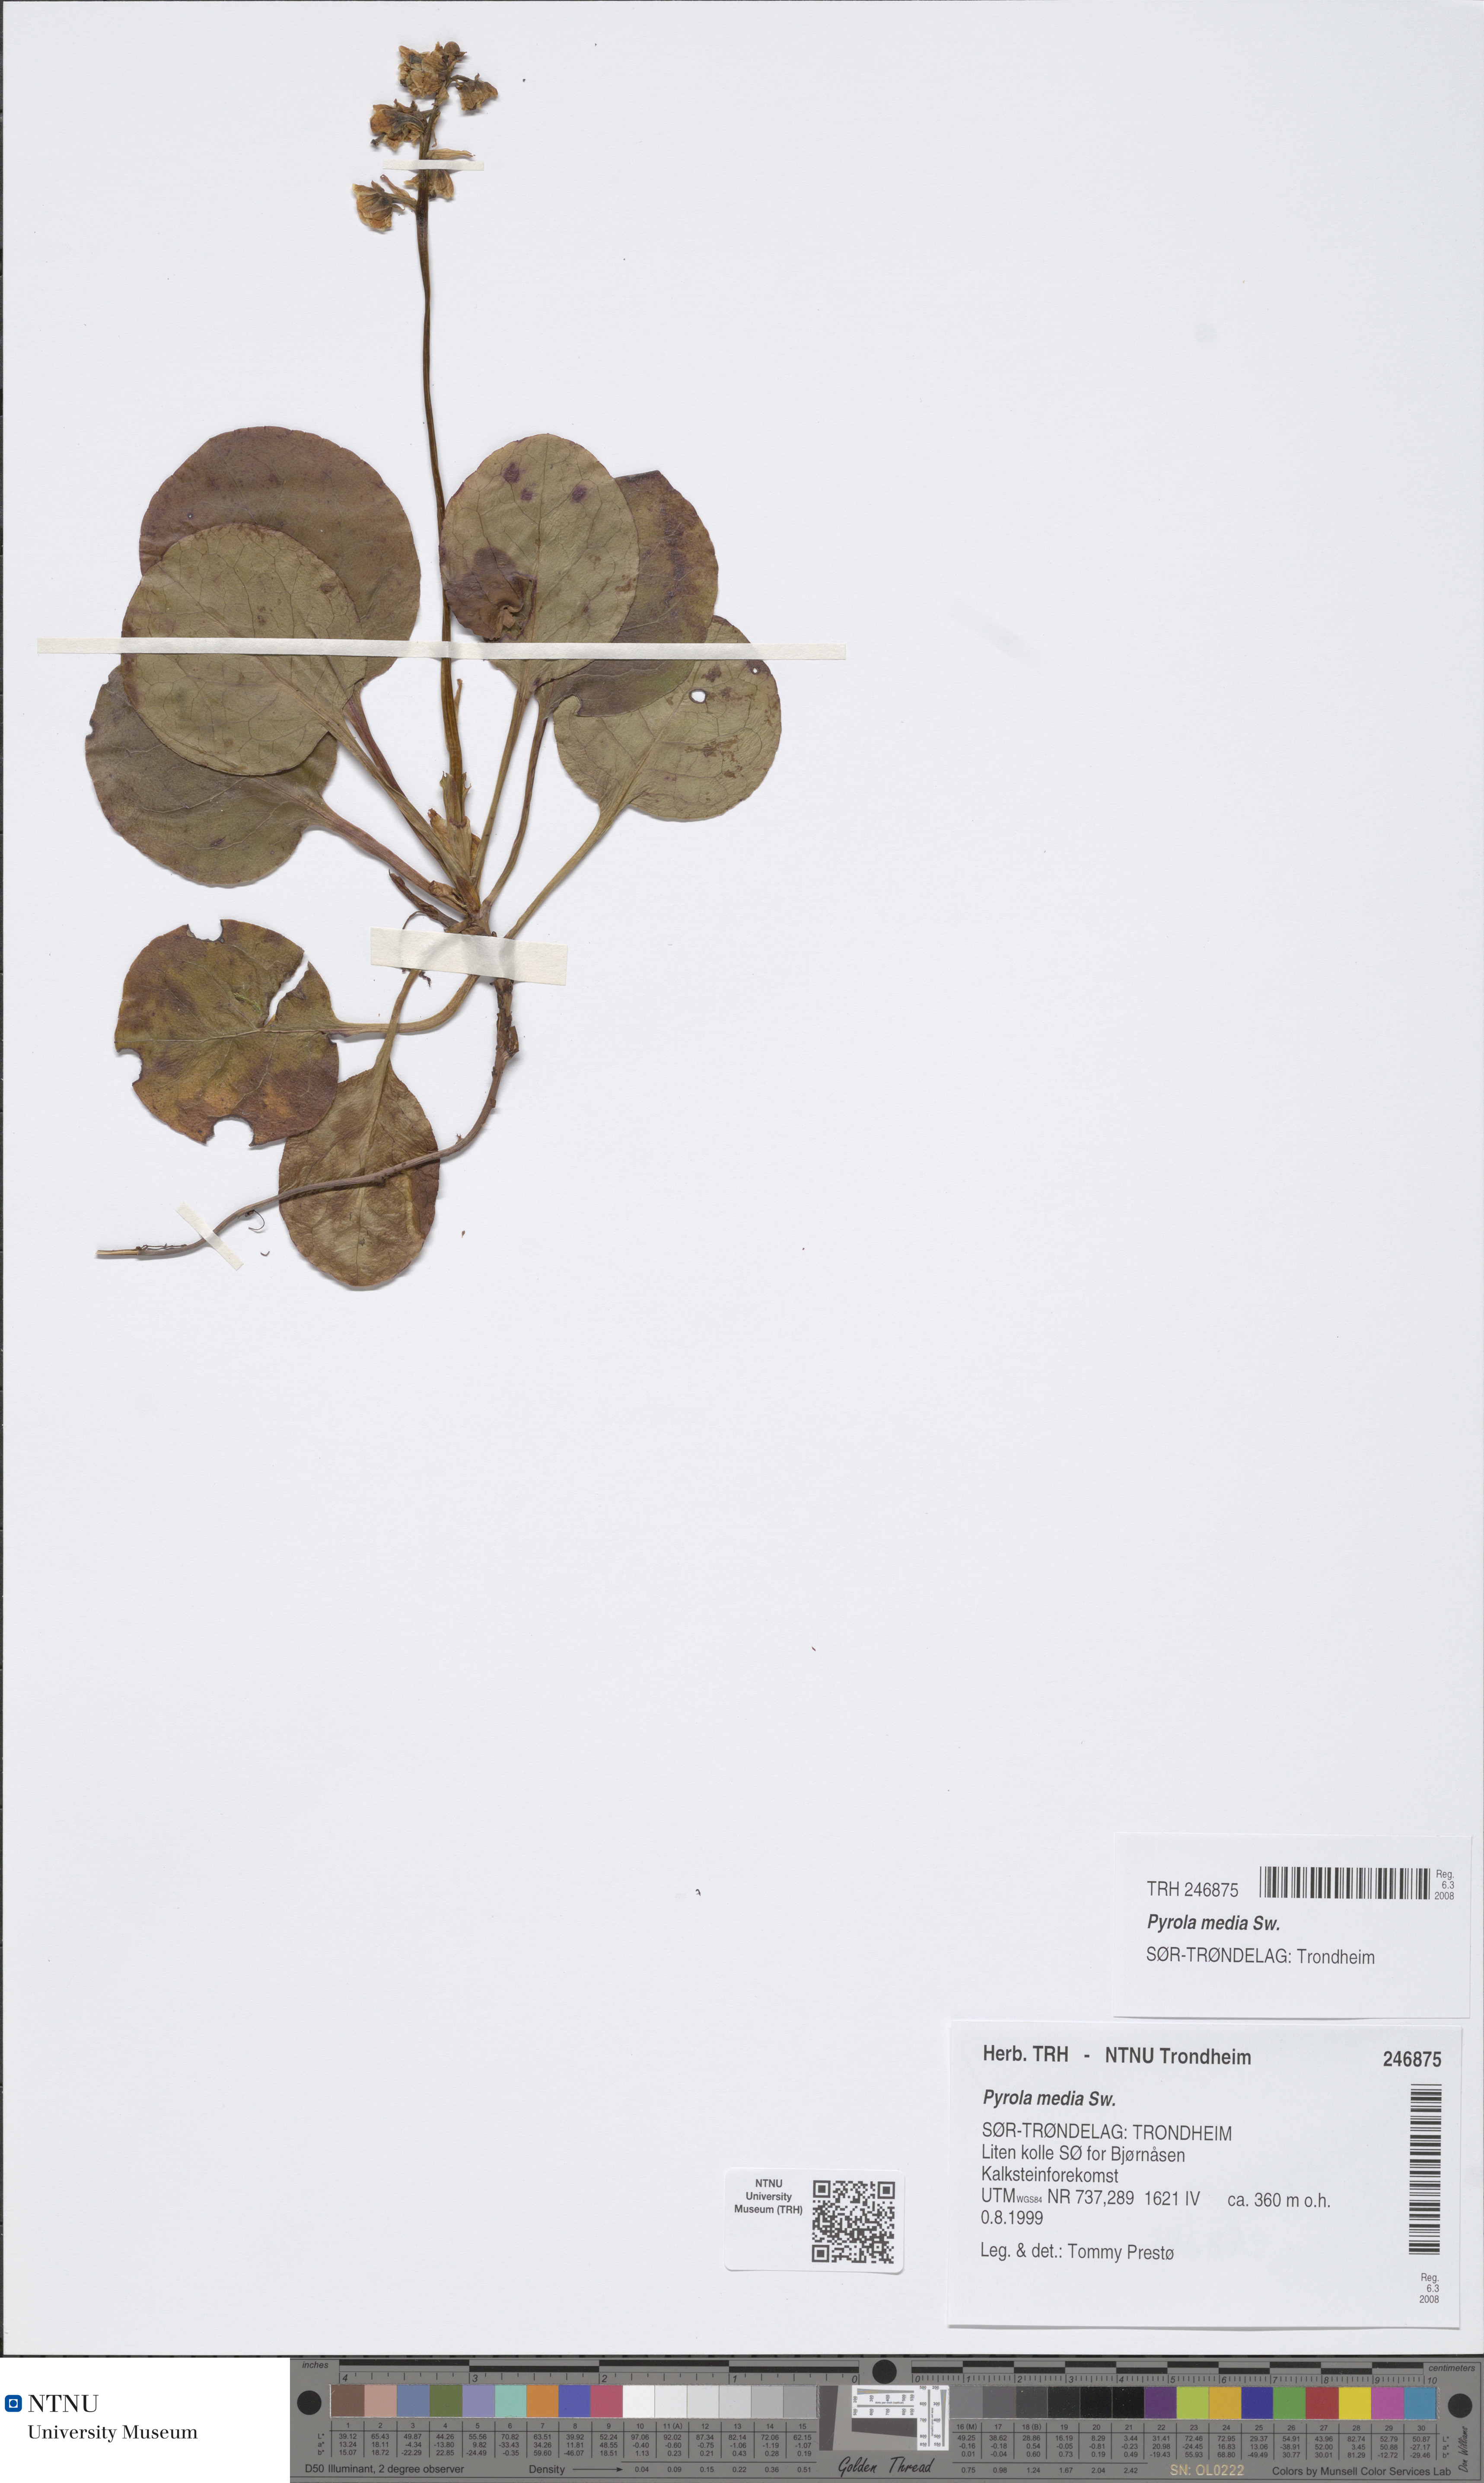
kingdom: Plantae
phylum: Tracheophyta
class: Magnoliopsida
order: Ericales
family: Ericaceae
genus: Pyrola
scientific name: Pyrola media
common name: Intermediate wintergreen
